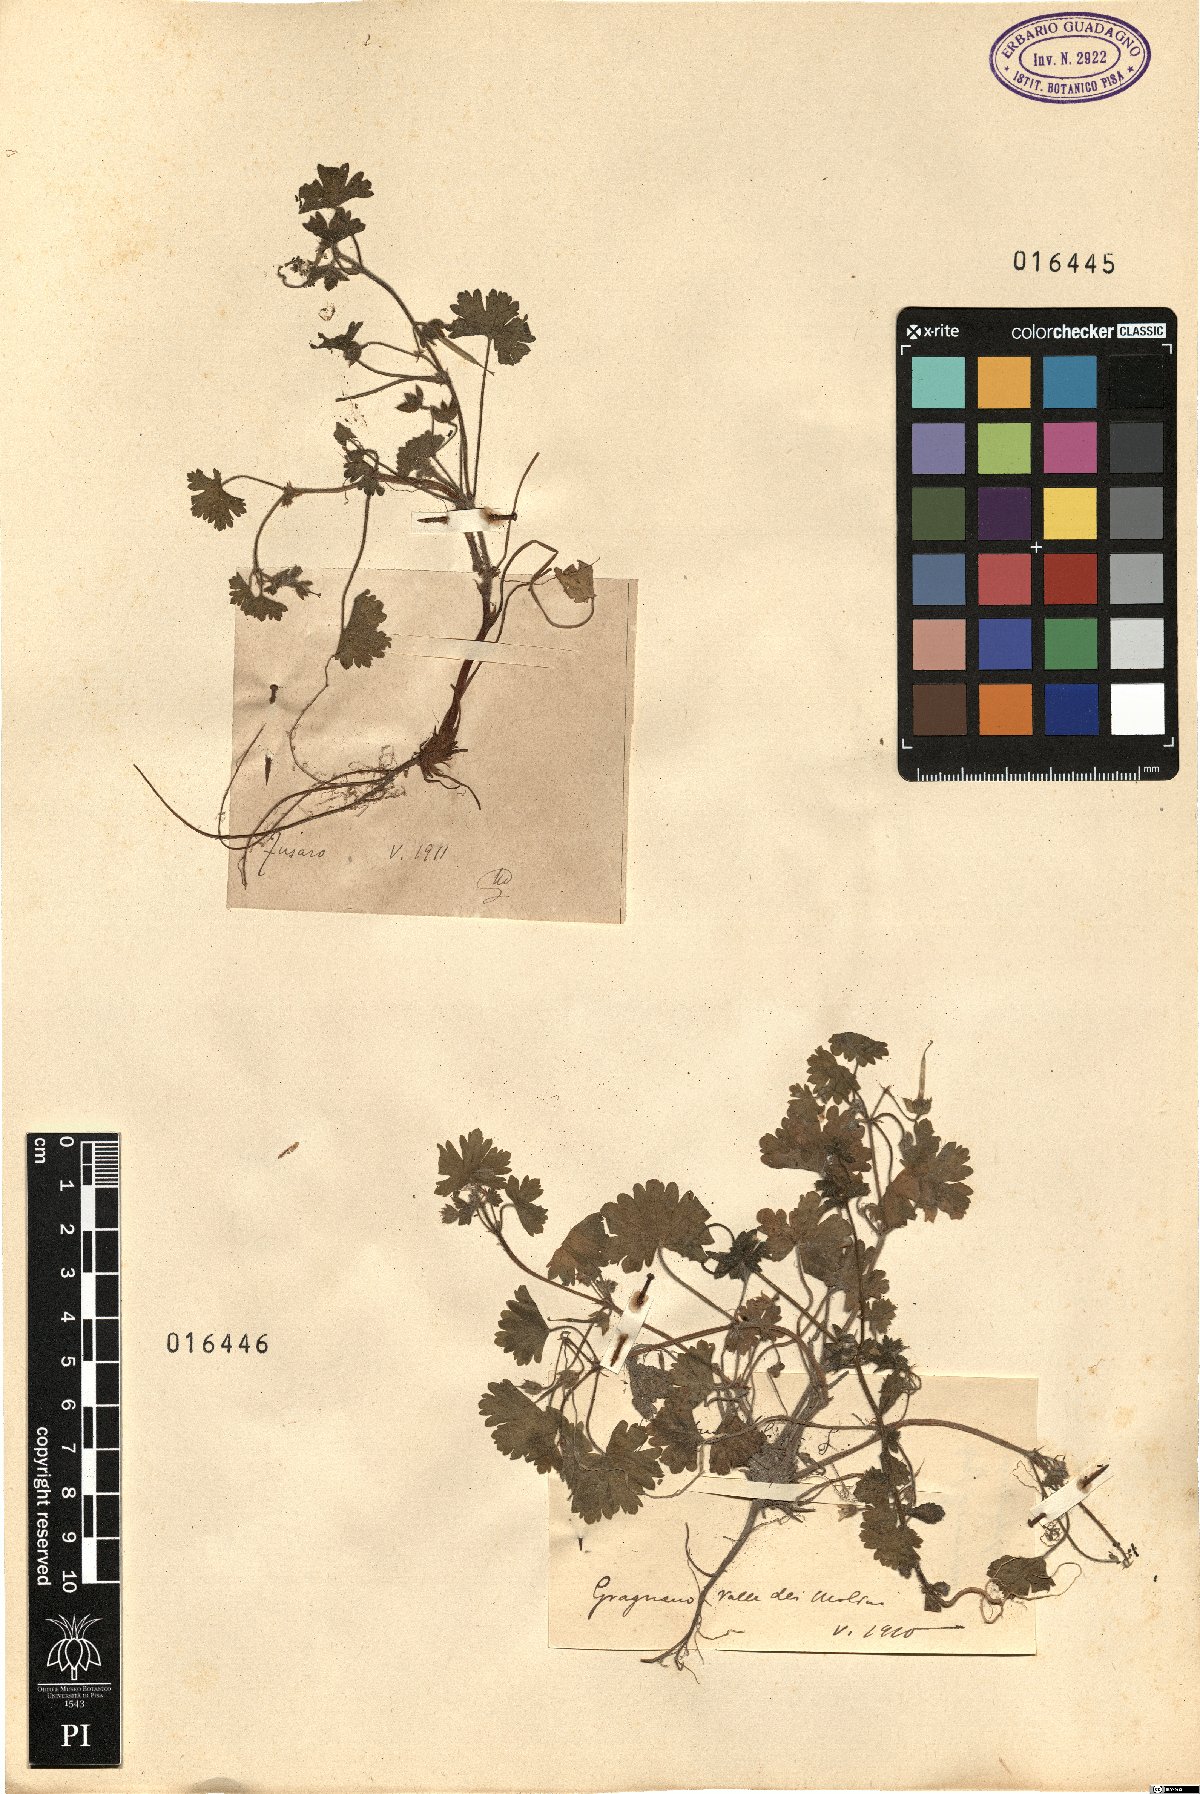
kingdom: Plantae
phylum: Tracheophyta
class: Magnoliopsida
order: Geraniales
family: Geraniaceae
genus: Geranium
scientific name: Geranium
